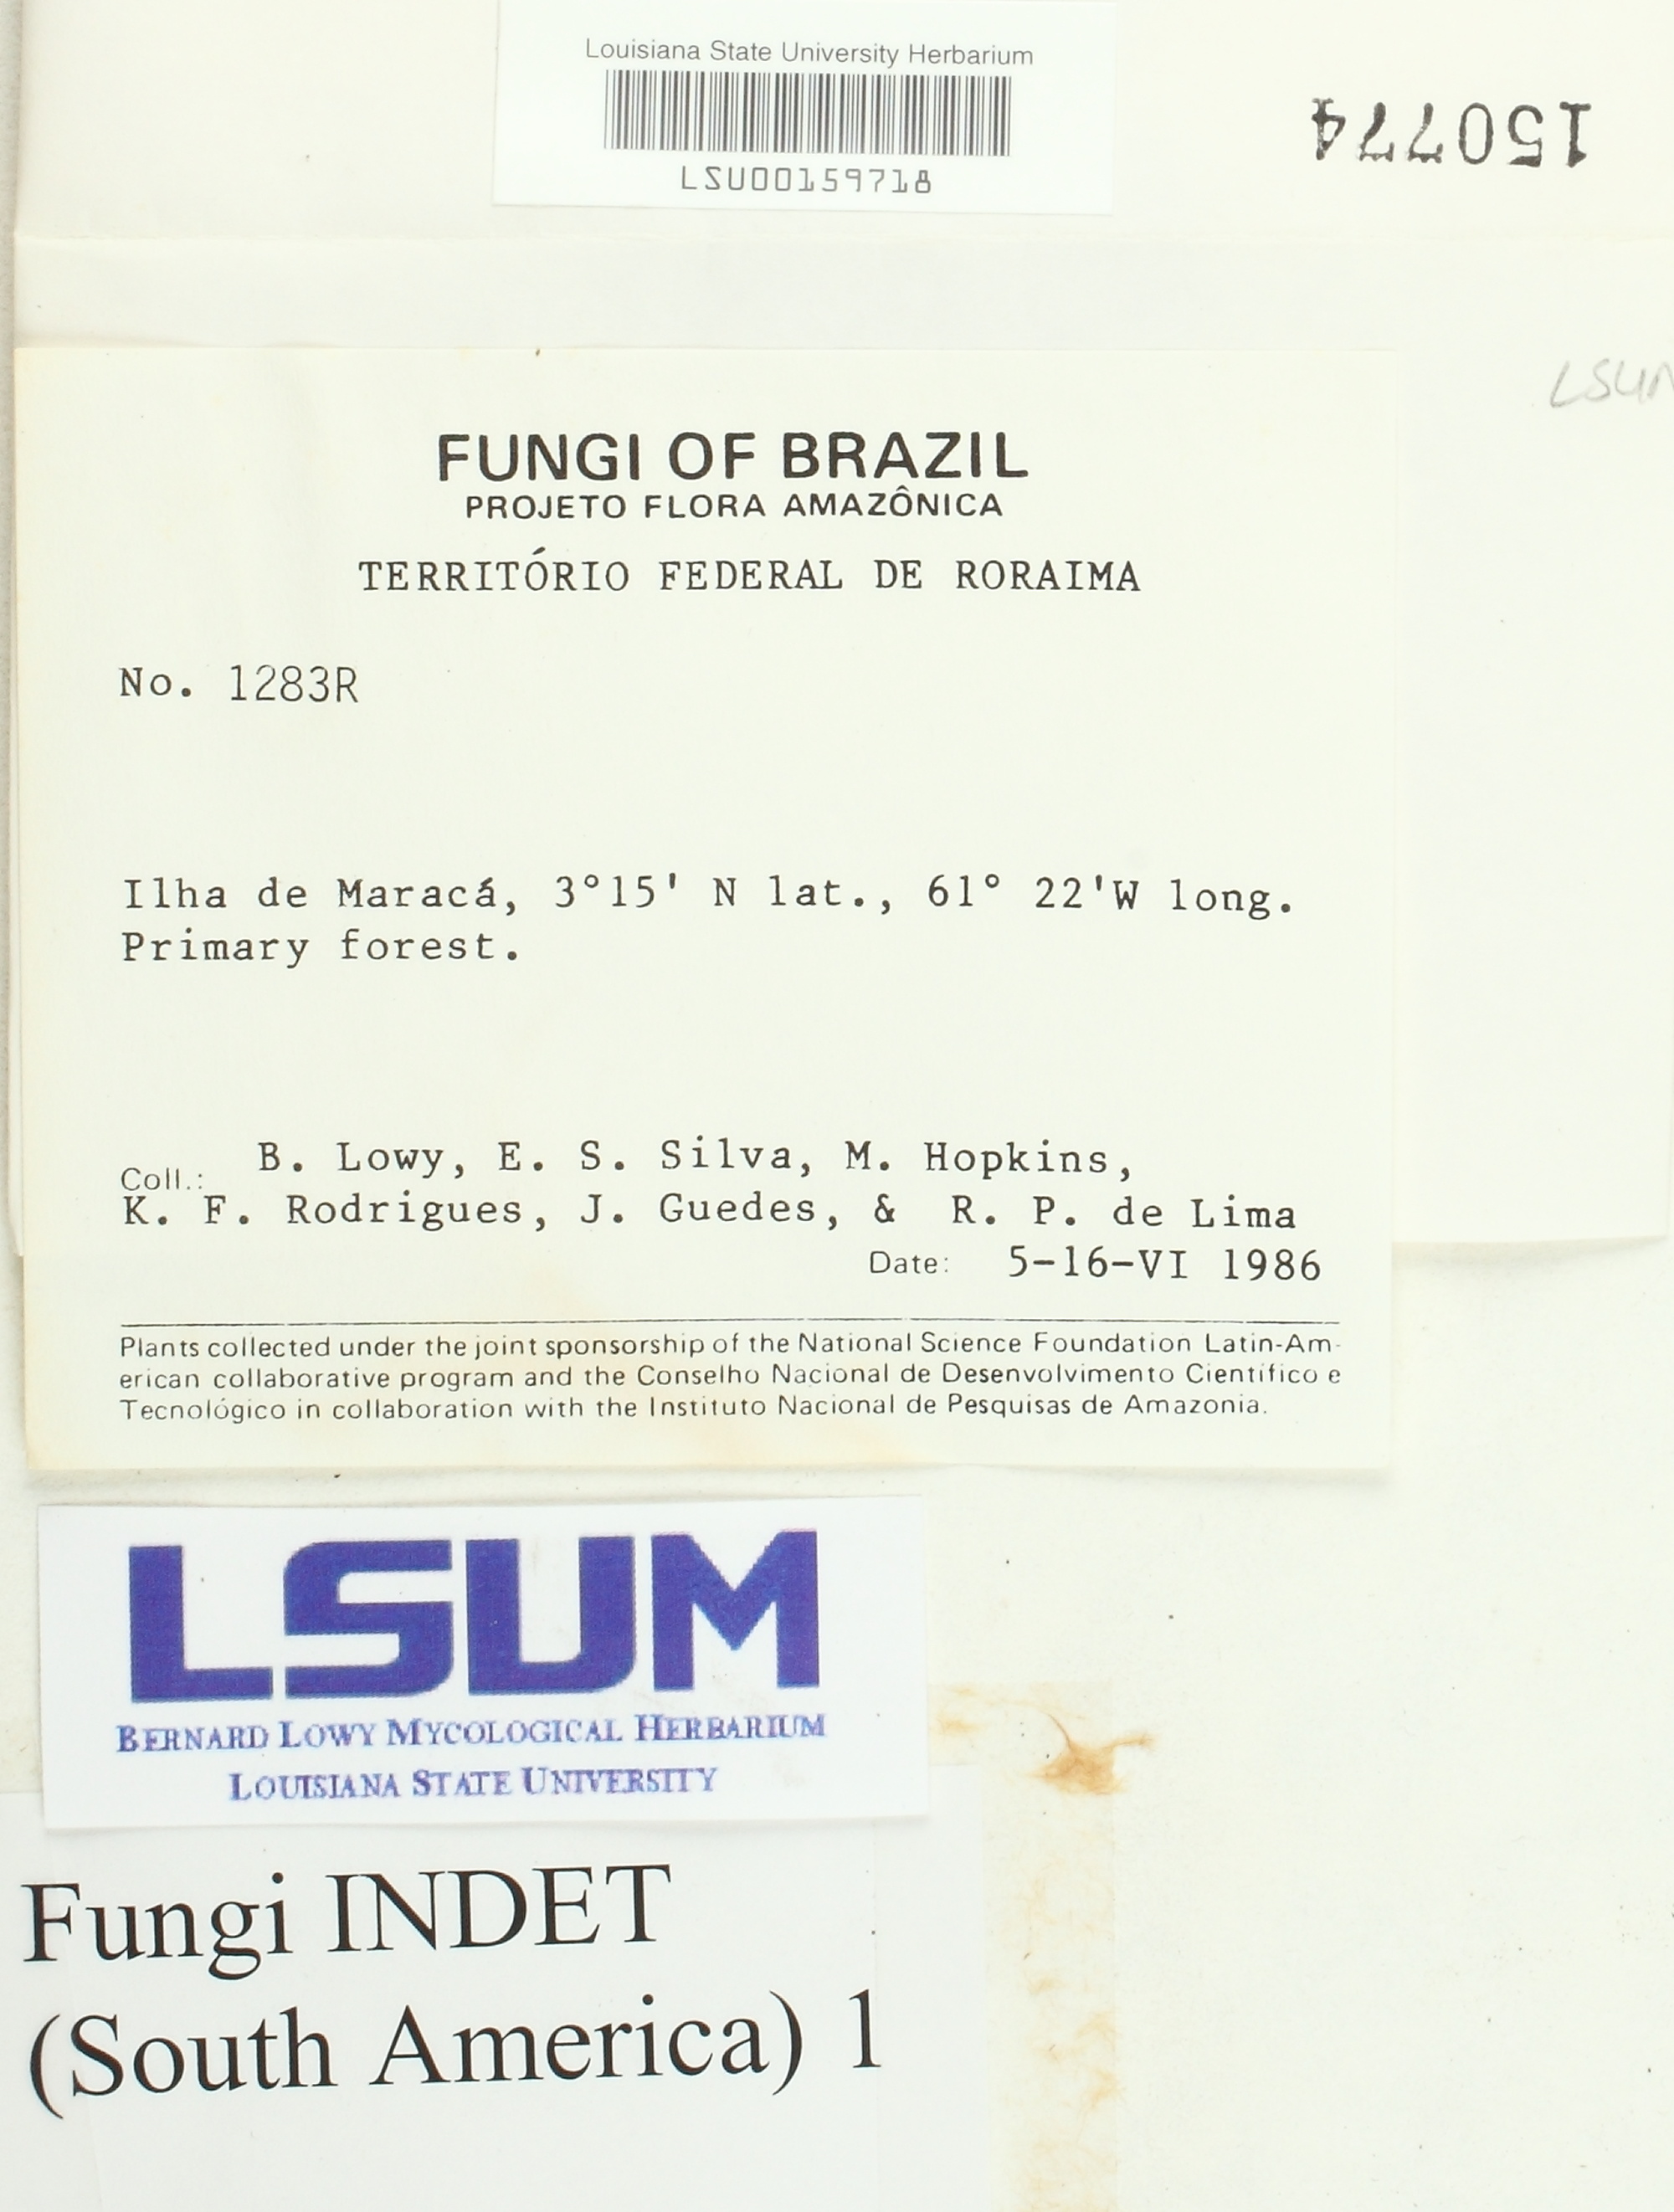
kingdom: Fungi
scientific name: Fungi
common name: Fungi
